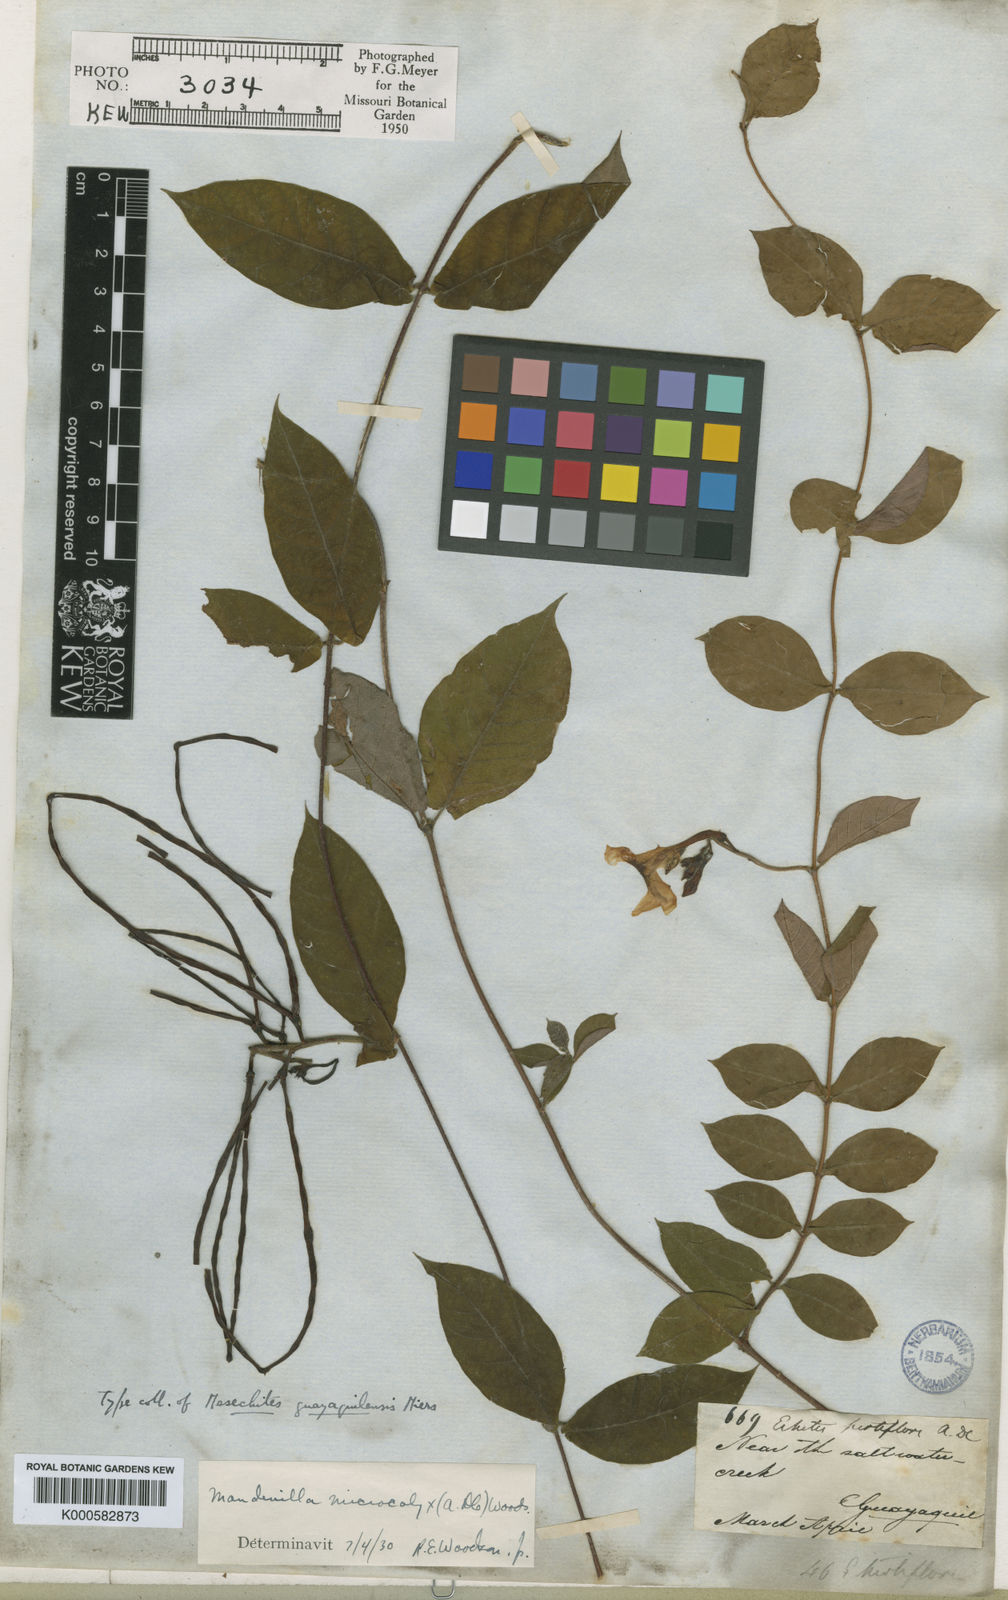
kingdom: Plantae
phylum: Tracheophyta
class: Magnoliopsida
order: Gentianales
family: Apocynaceae
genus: Mandevilla
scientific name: Mandevilla subsagittata
